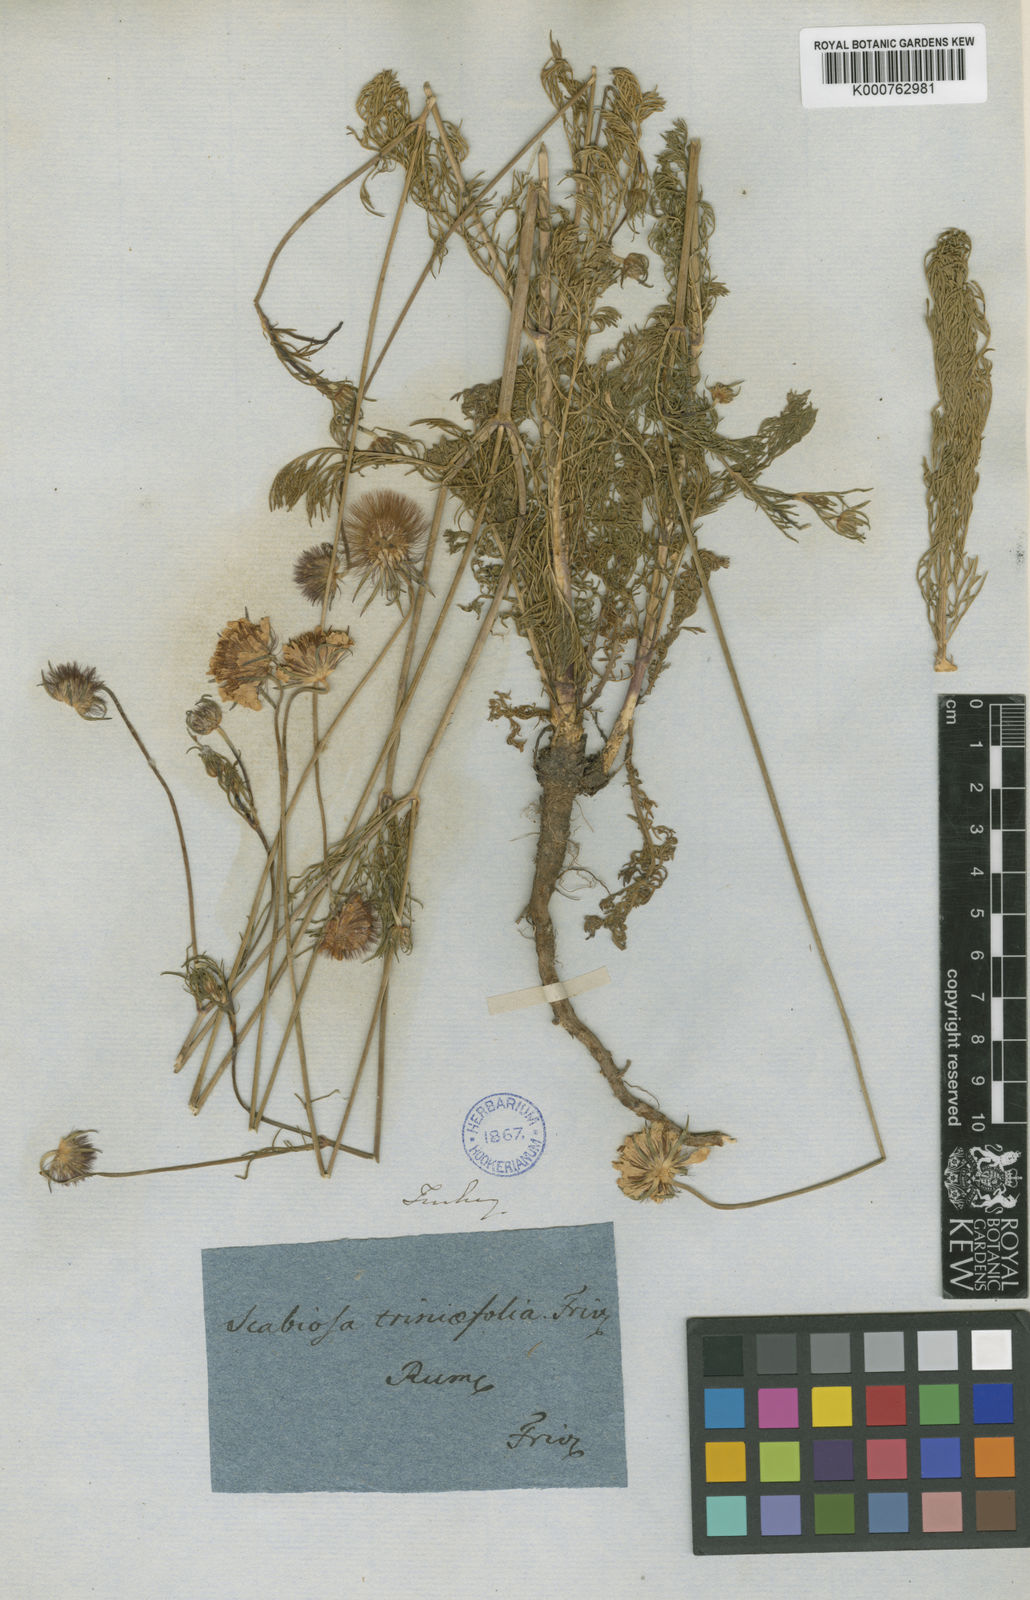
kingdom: Plantae
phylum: Tracheophyta
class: Magnoliopsida
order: Dipsacales
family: Caprifoliaceae
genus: Scabiosa
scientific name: Scabiosa triniifolia
